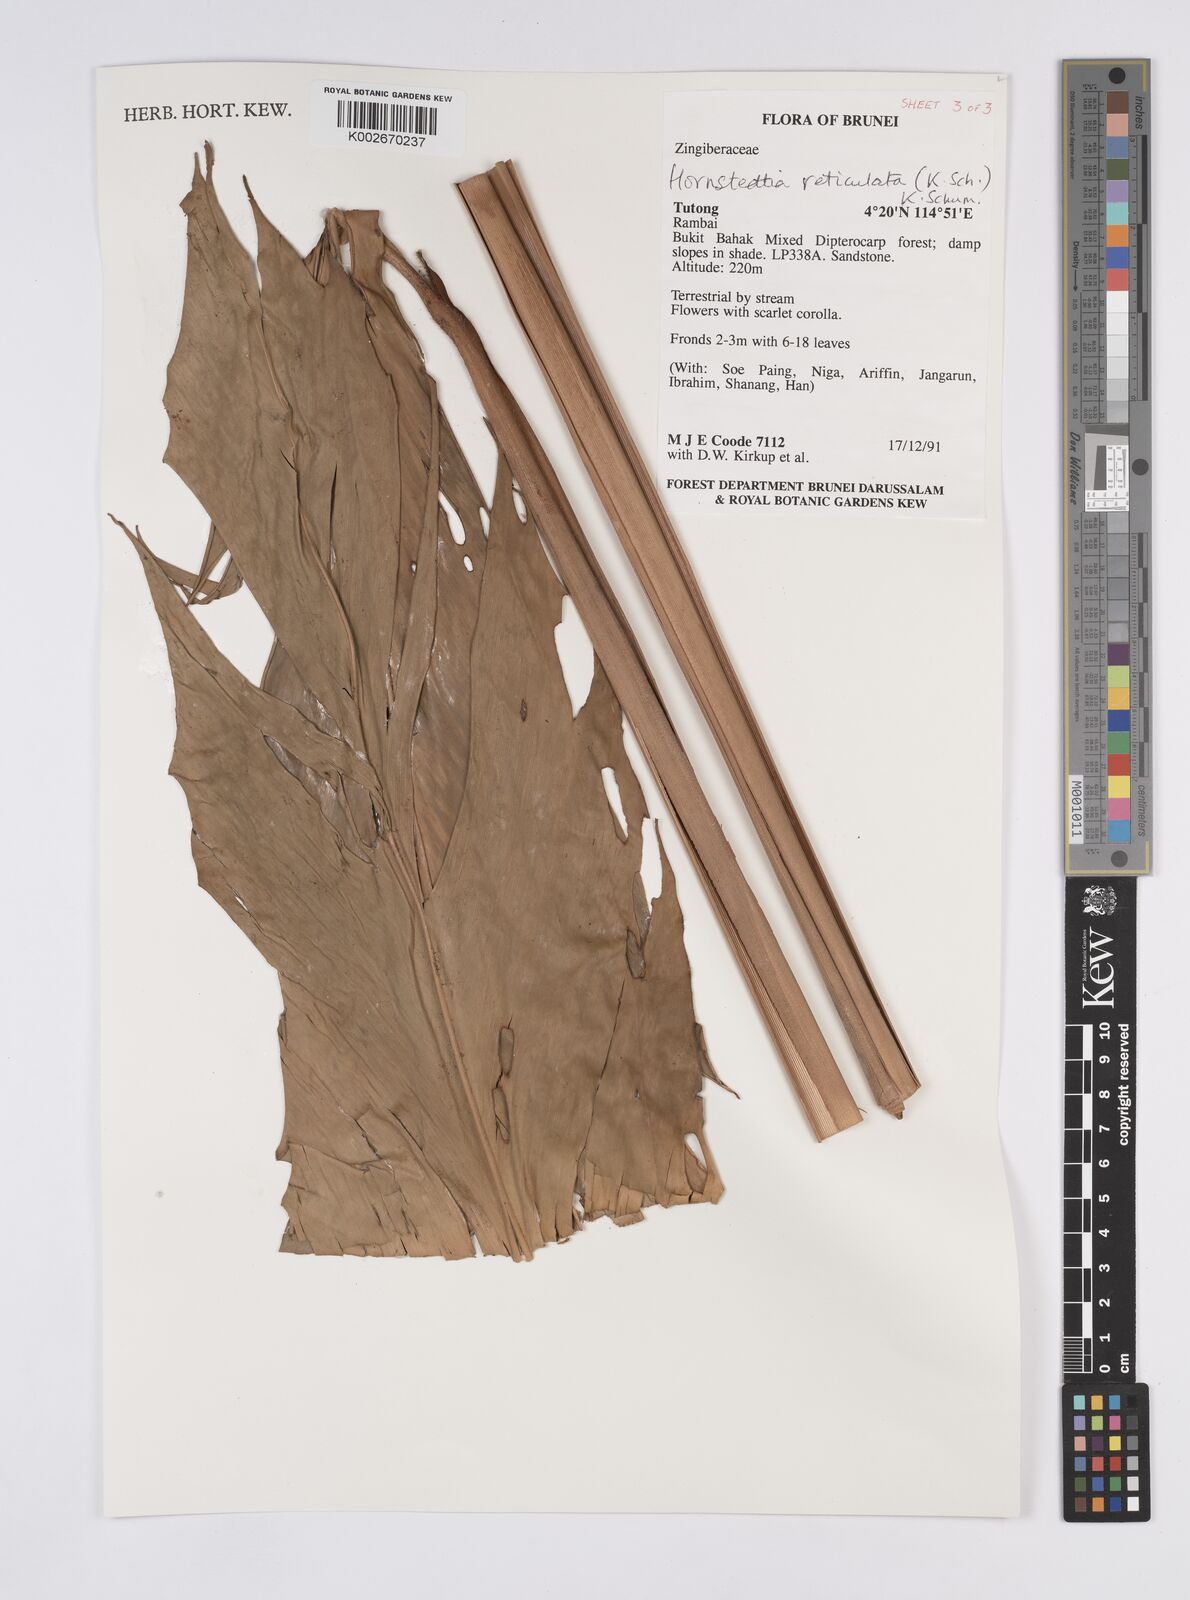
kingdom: Plantae
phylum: Tracheophyta
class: Liliopsida
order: Zingiberales
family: Zingiberaceae
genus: Hornstedtia
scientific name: Hornstedtia reticulata
